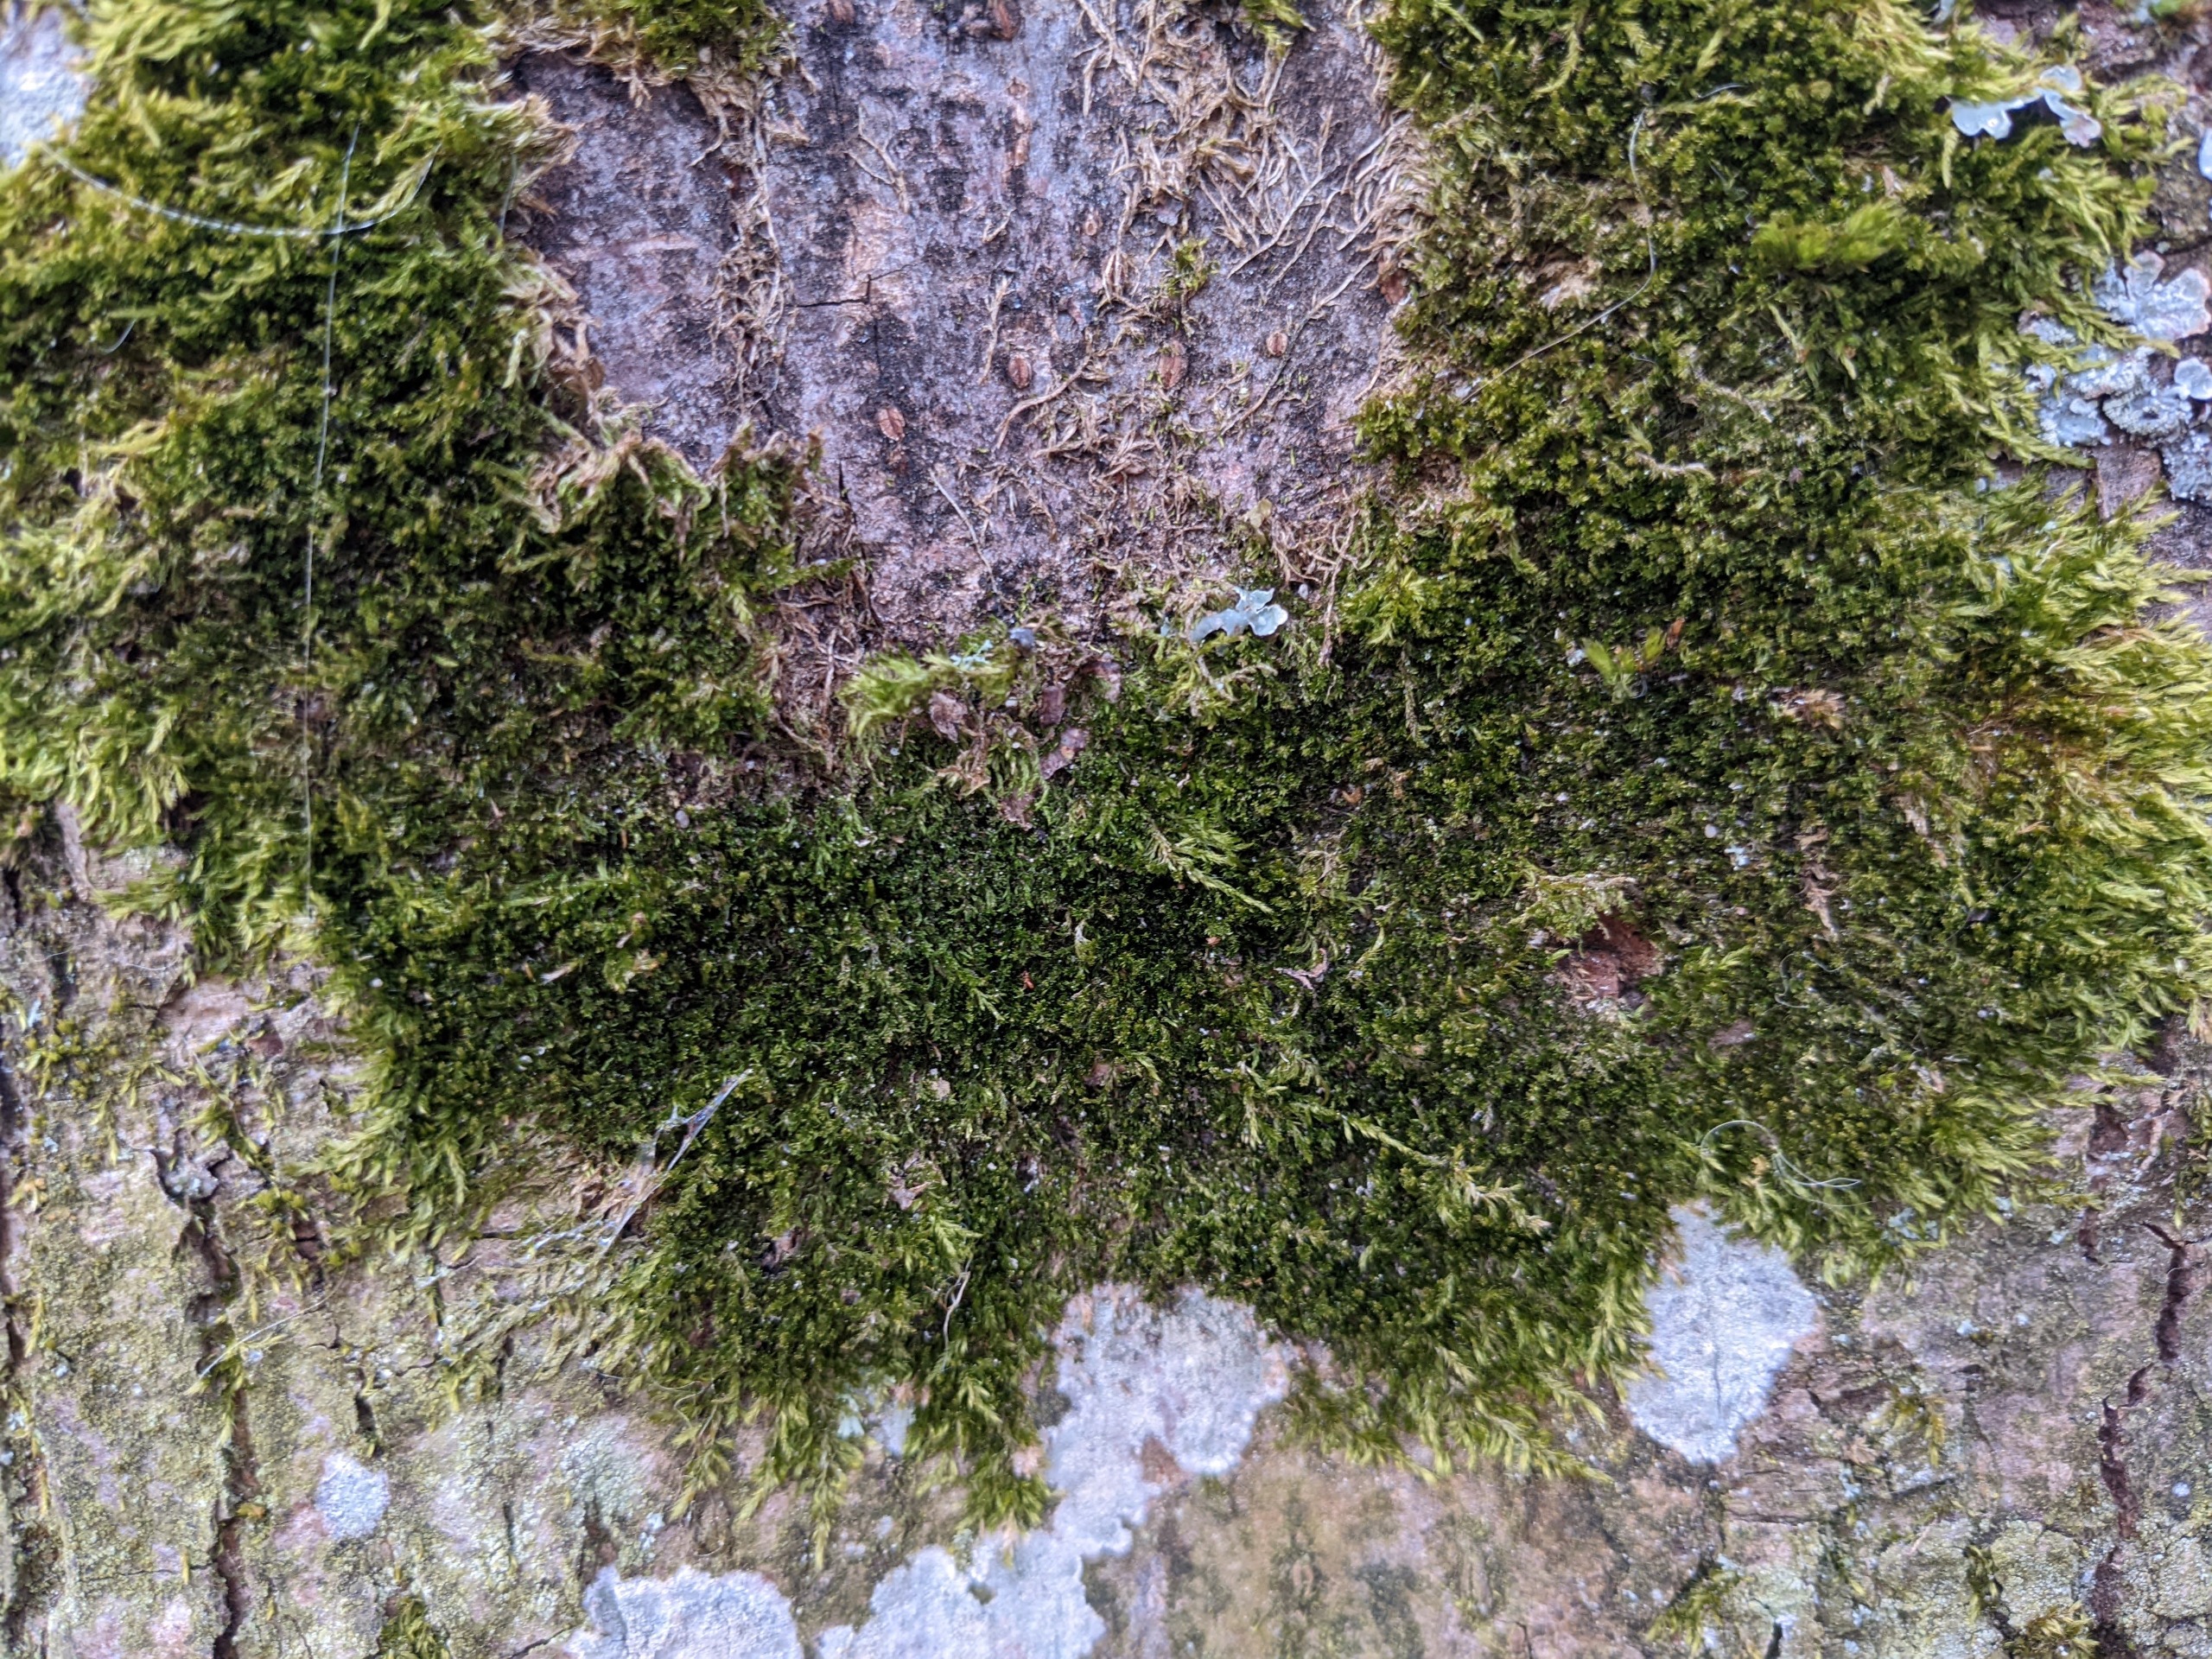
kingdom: Plantae
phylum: Bryophyta
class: Bryopsida
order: Hypnales
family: Pylaisiadelphaceae
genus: Platygyrium
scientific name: Platygyrium repens
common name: Mørk yngleknop
